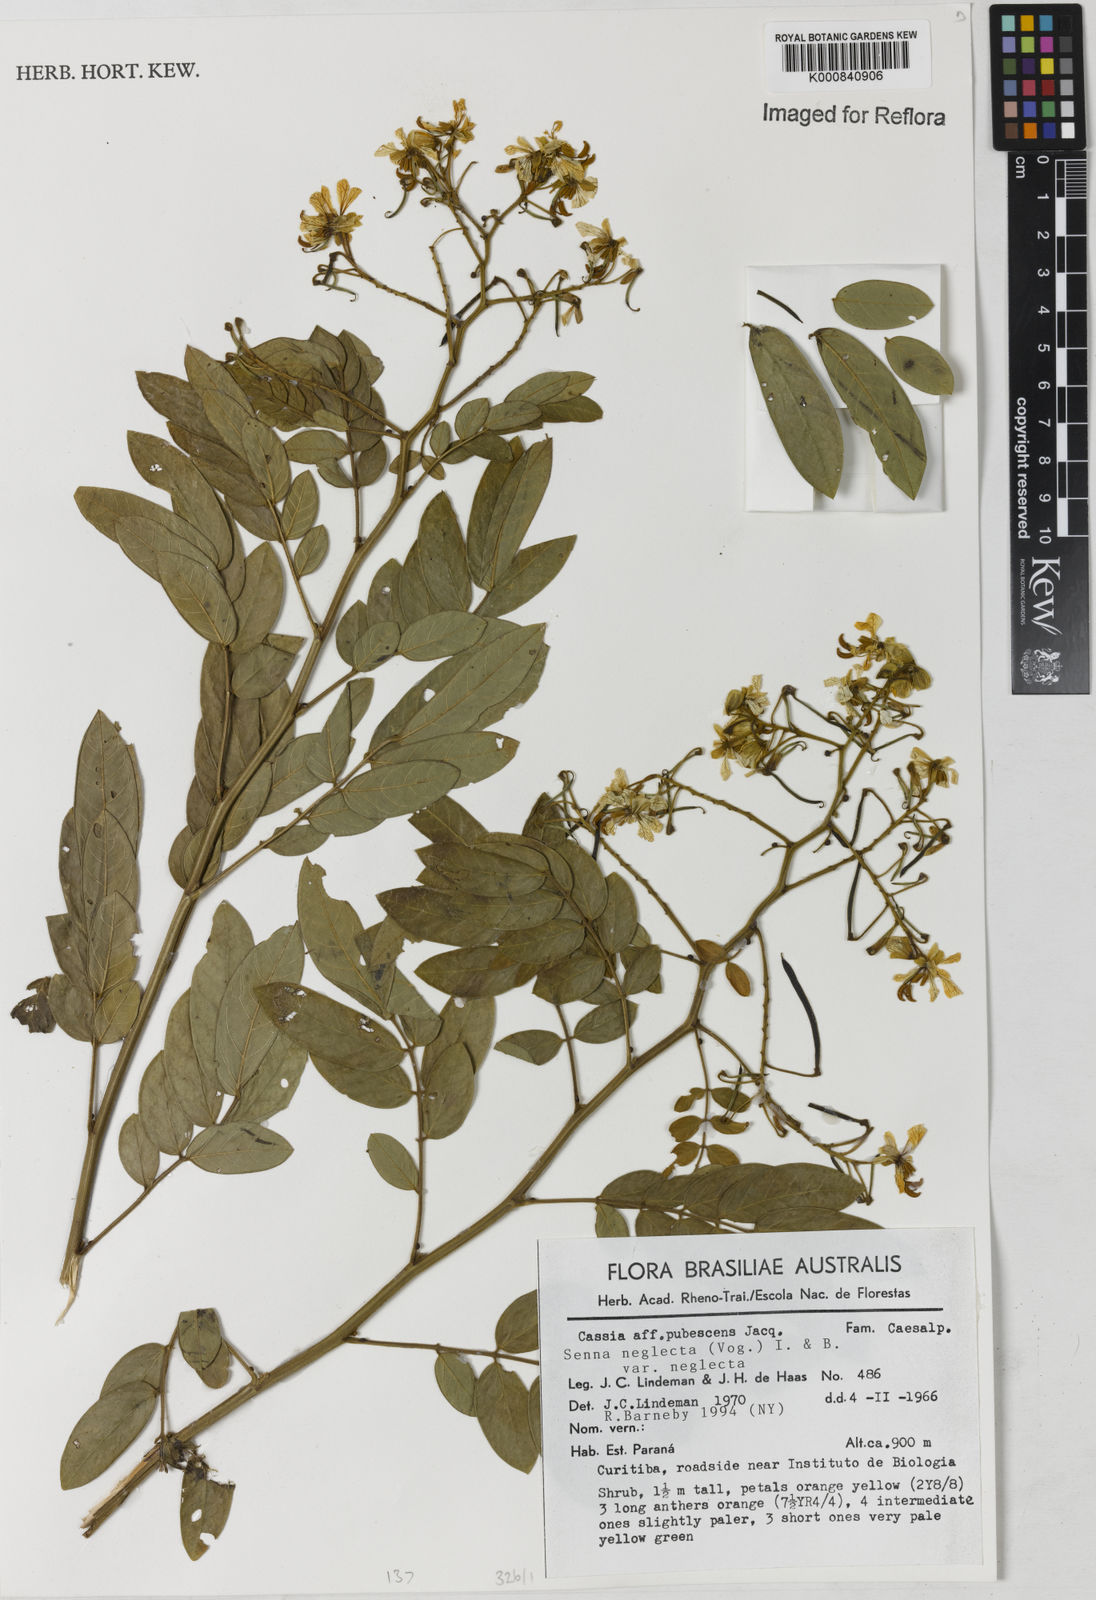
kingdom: Plantae
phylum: Tracheophyta
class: Magnoliopsida
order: Fabales
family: Fabaceae
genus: Senna
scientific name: Senna neglecta
